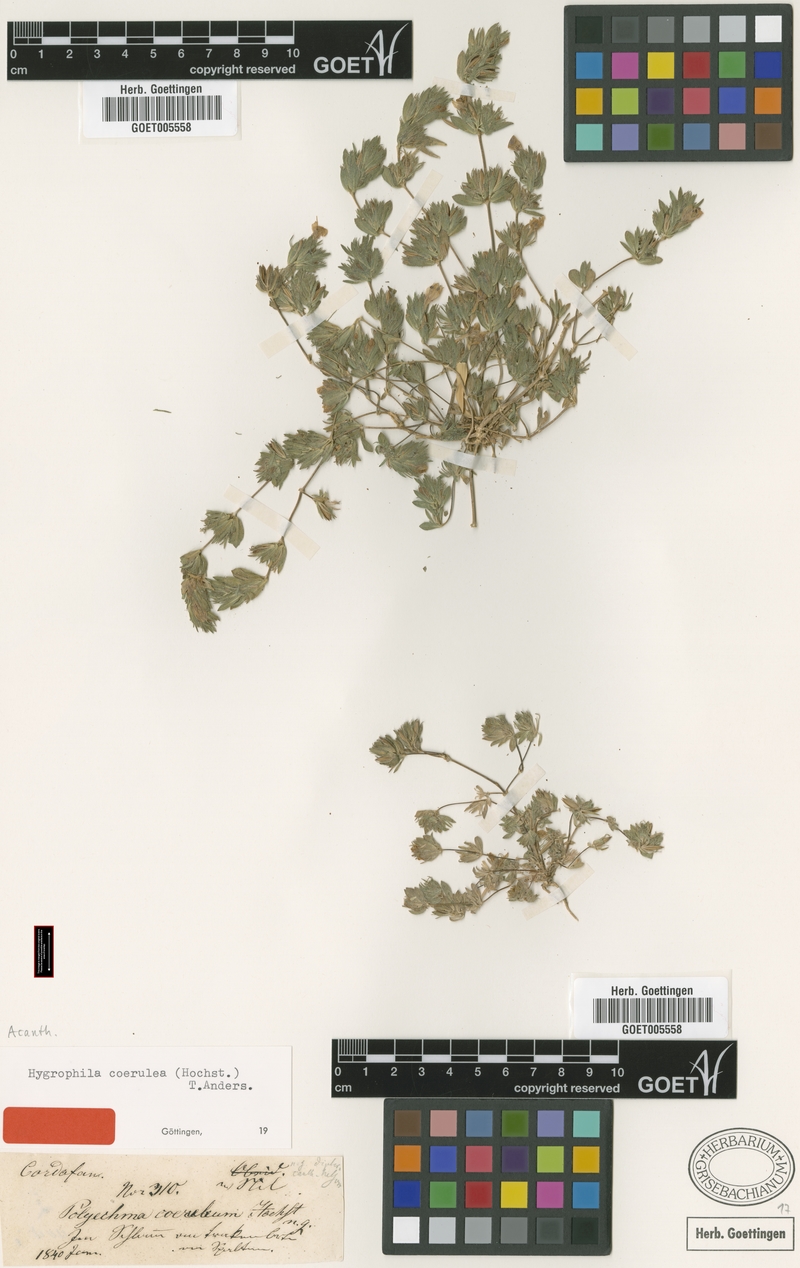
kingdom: Plantae
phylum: Tracheophyta
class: Magnoliopsida
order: Lamiales
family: Acanthaceae
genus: Hygrophila
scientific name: Hygrophila caerulea
